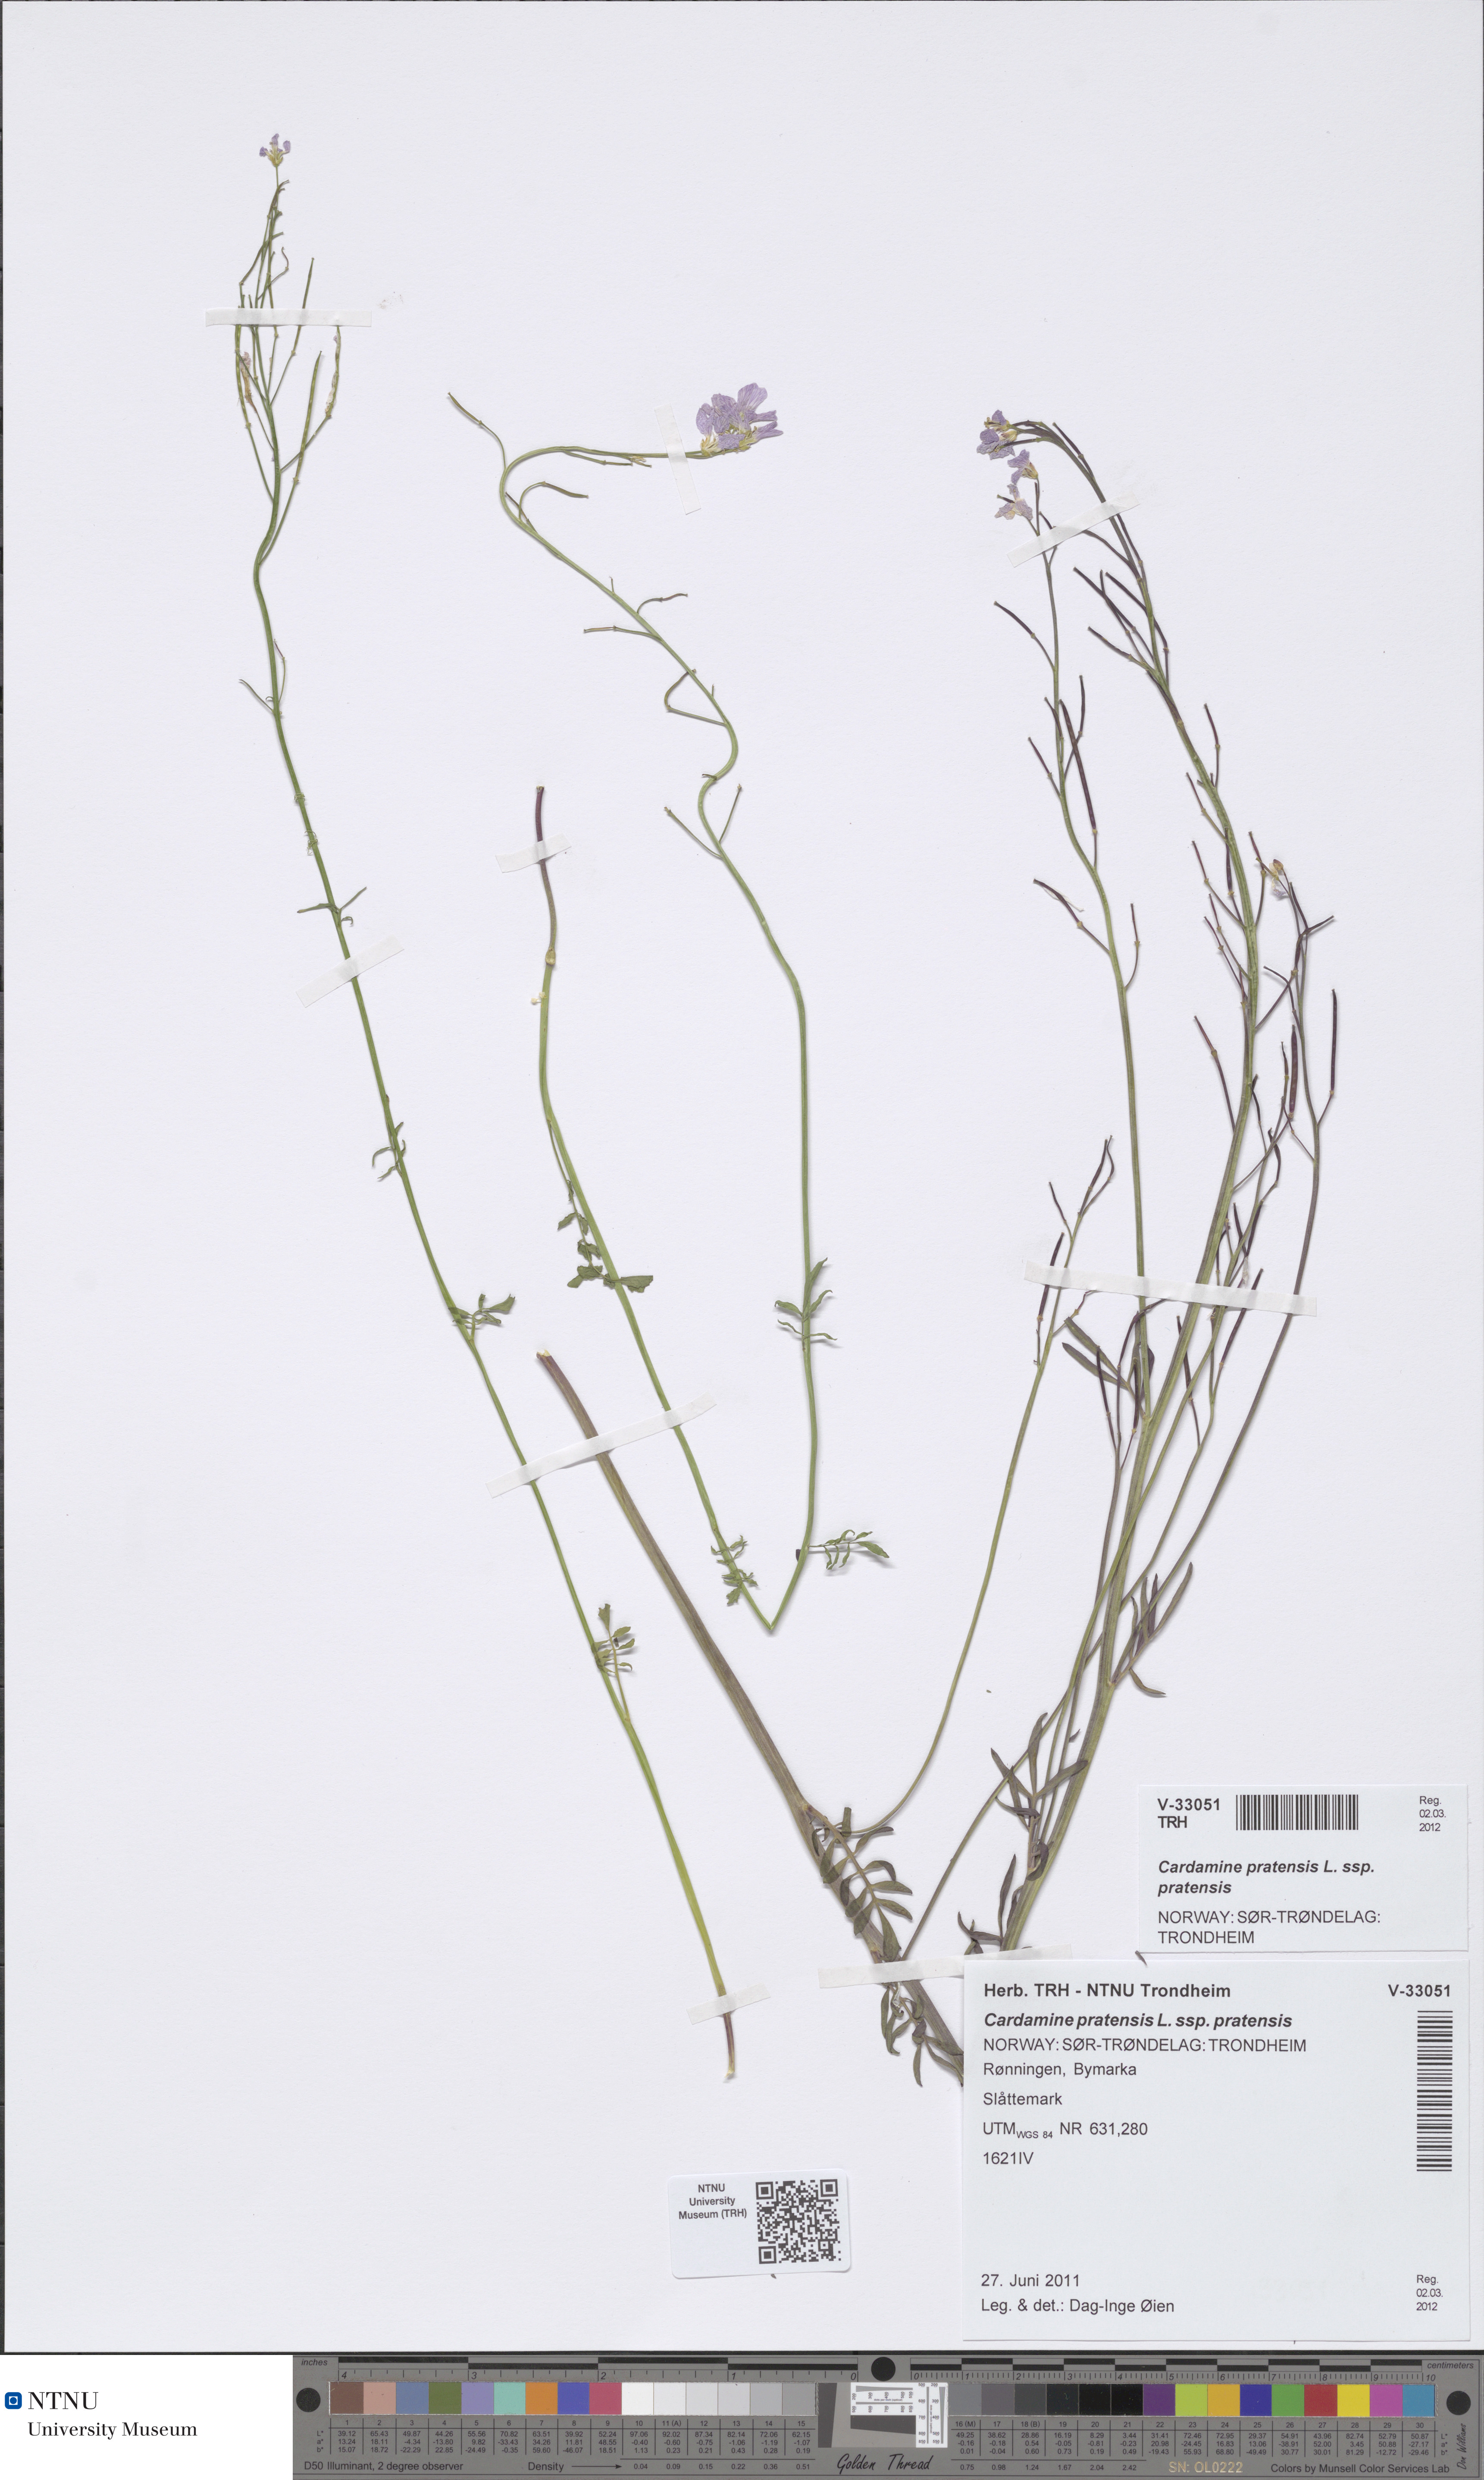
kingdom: Plantae
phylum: Tracheophyta
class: Magnoliopsida
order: Brassicales
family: Brassicaceae
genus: Cardamine
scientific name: Cardamine dentata
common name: Toothed bittercress
